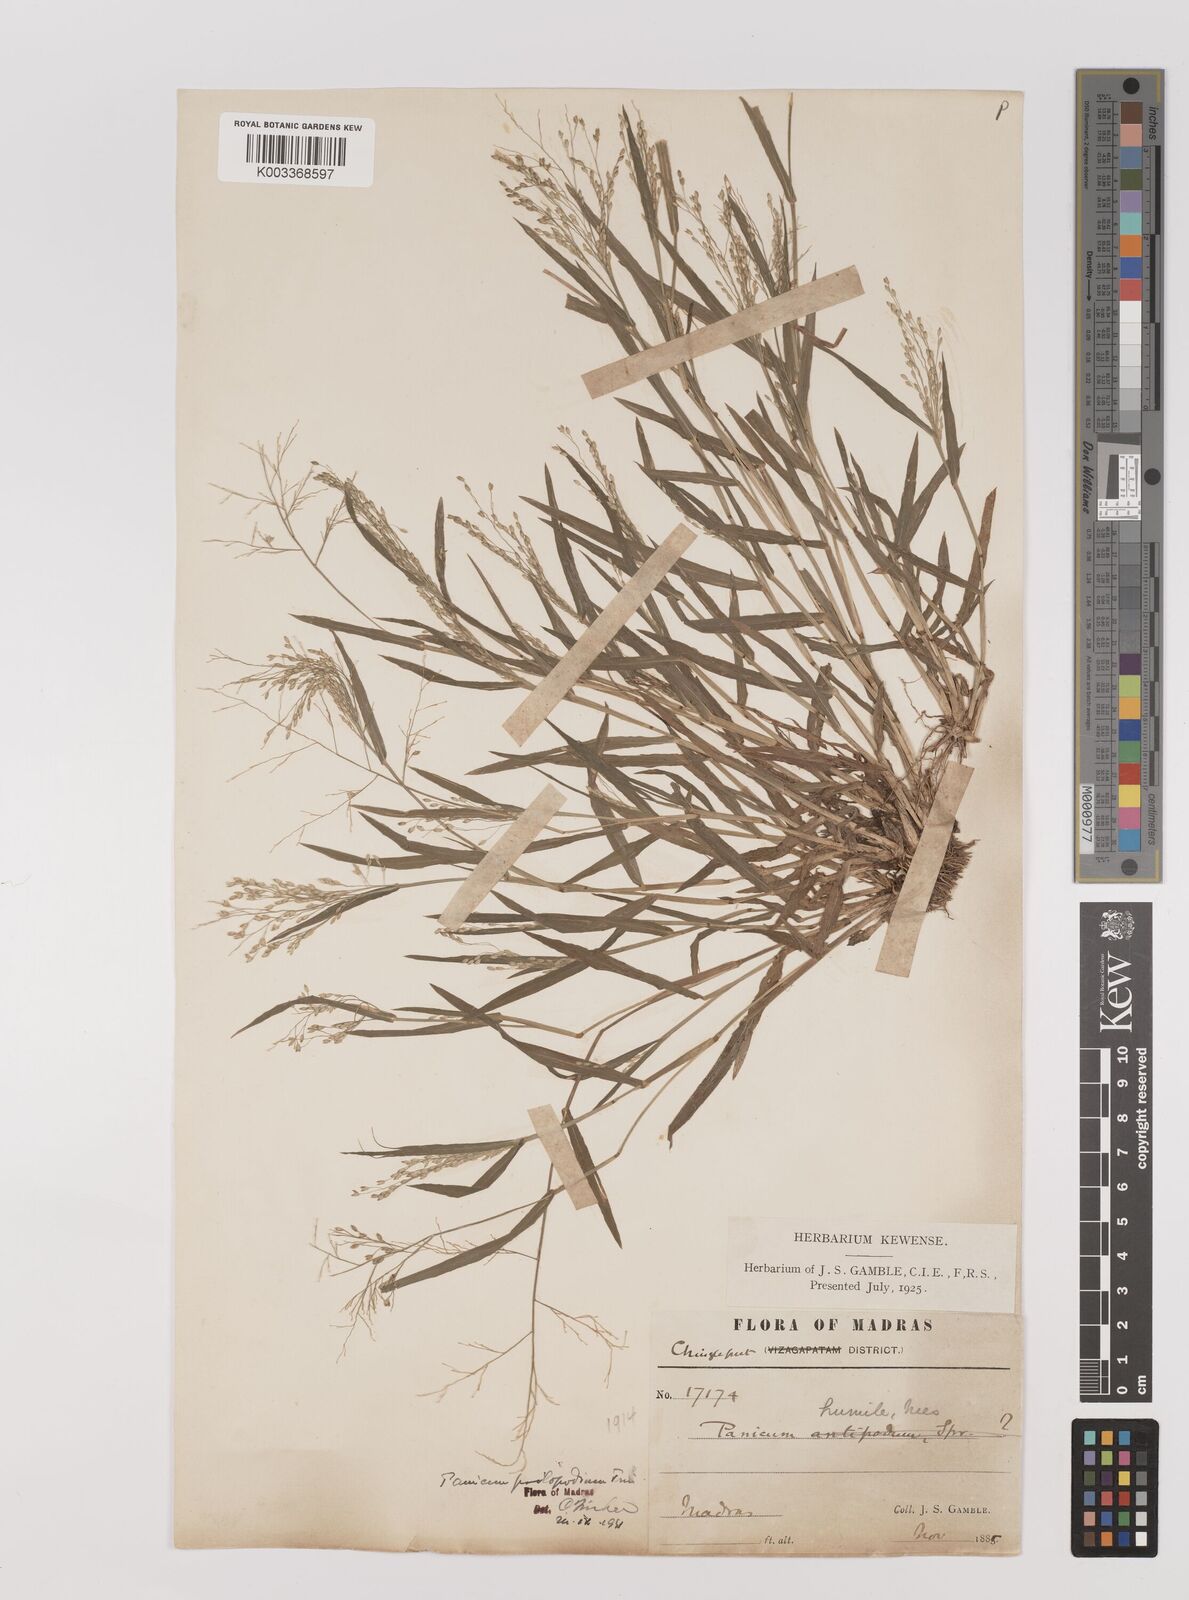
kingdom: Plantae
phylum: Tracheophyta
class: Liliopsida
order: Poales
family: Poaceae
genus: Panicum
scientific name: Panicum sumatrense
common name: Little millet
